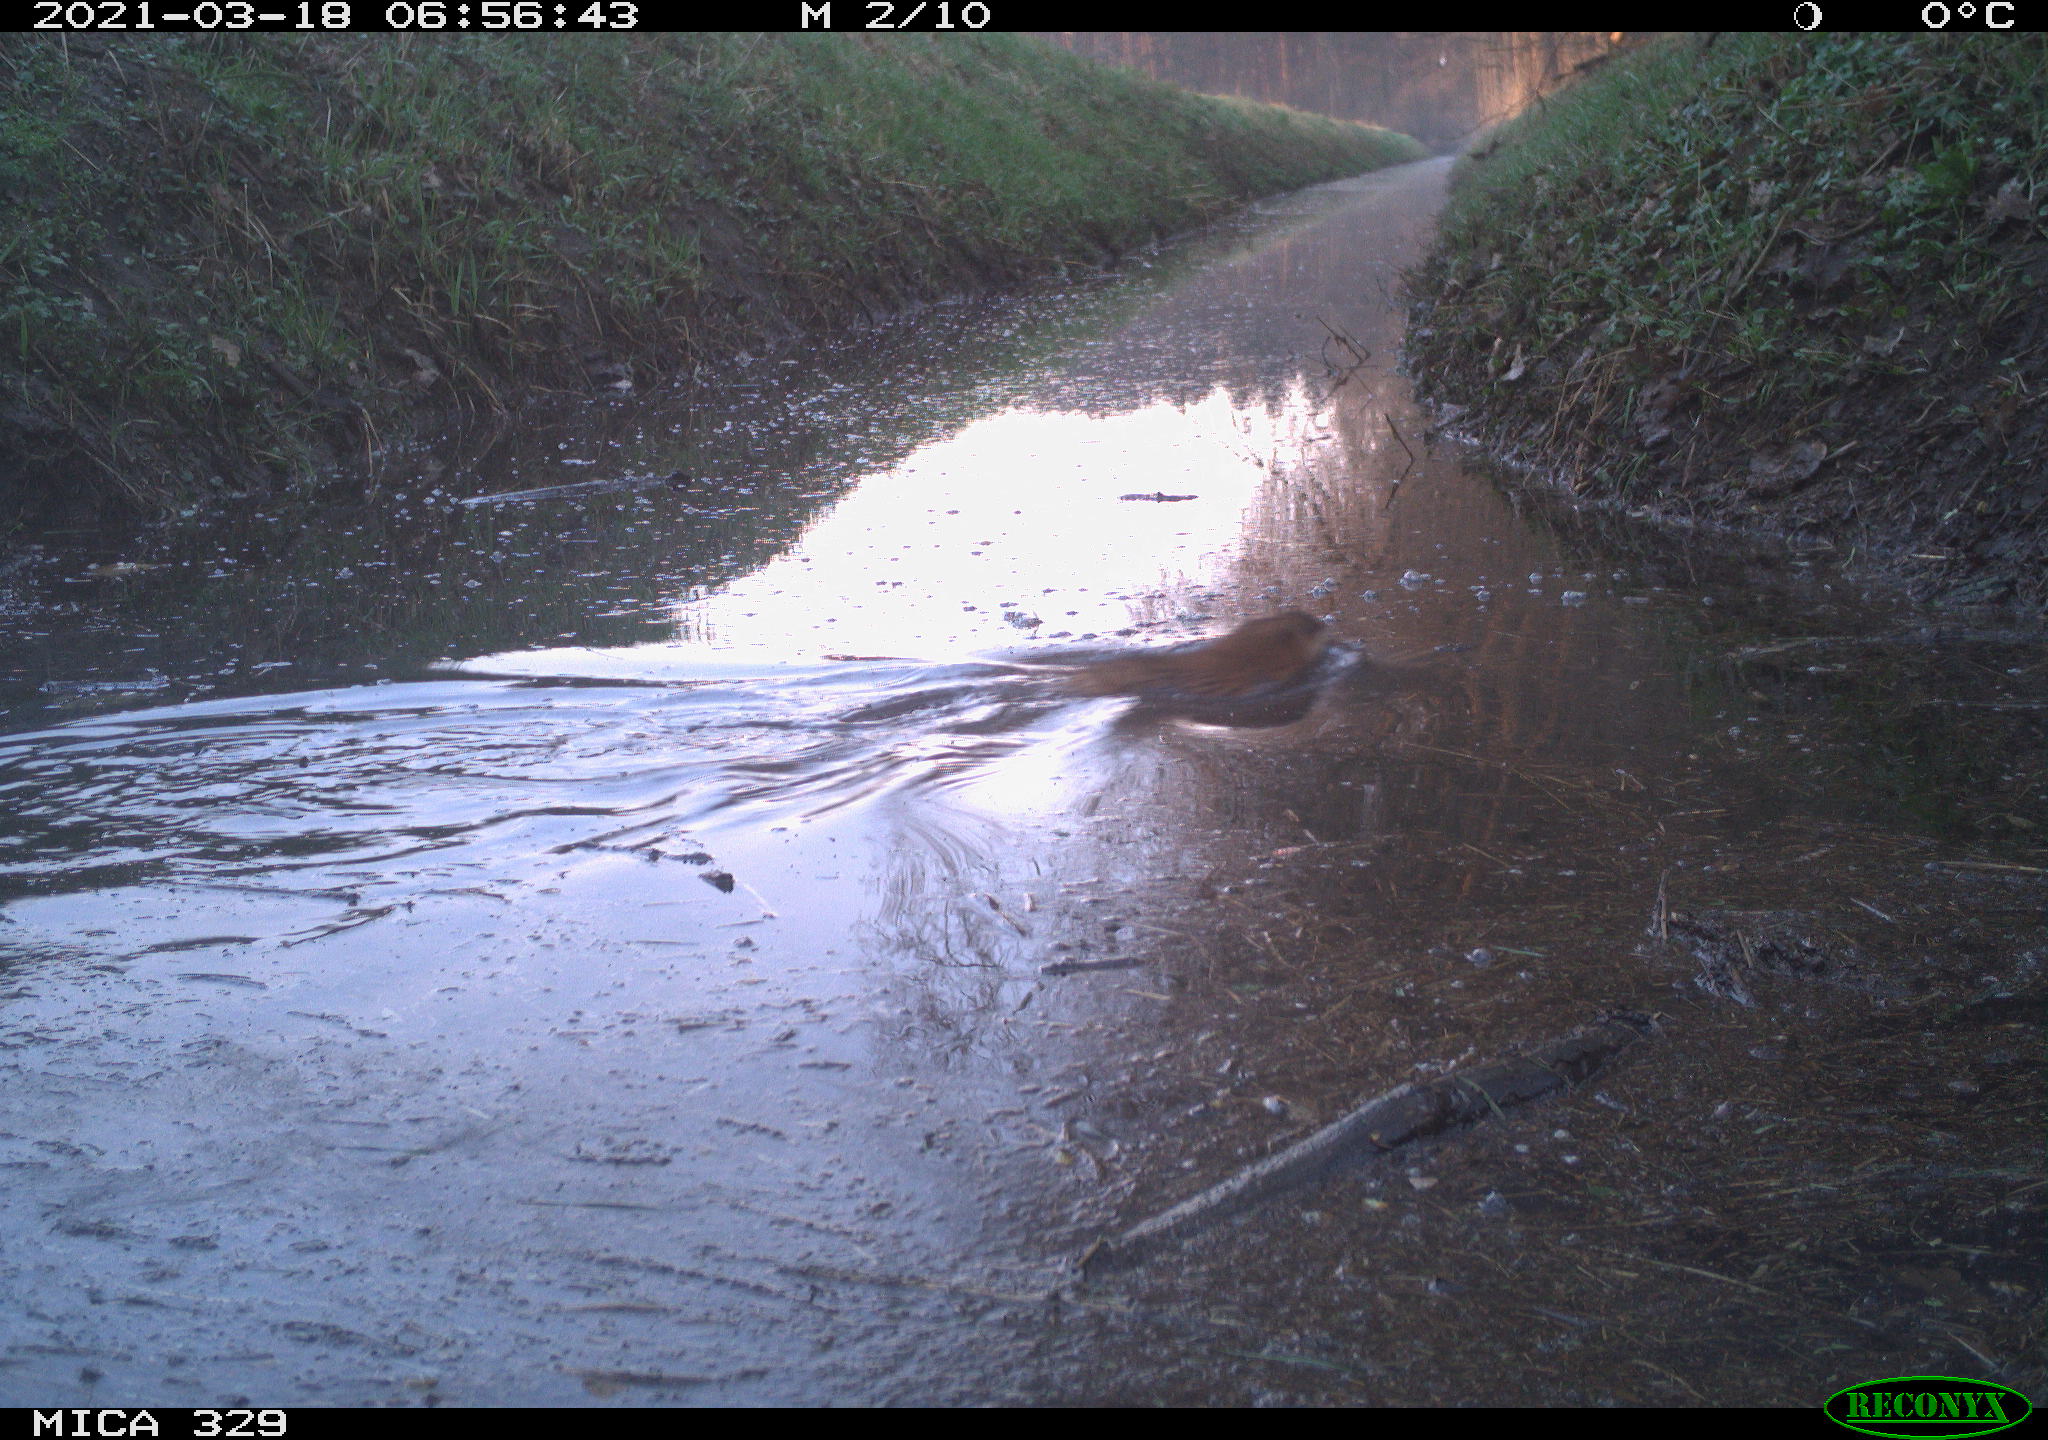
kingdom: Animalia
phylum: Chordata
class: Mammalia
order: Rodentia
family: Cricetidae
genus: Ondatra
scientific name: Ondatra zibethicus
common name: Muskrat
